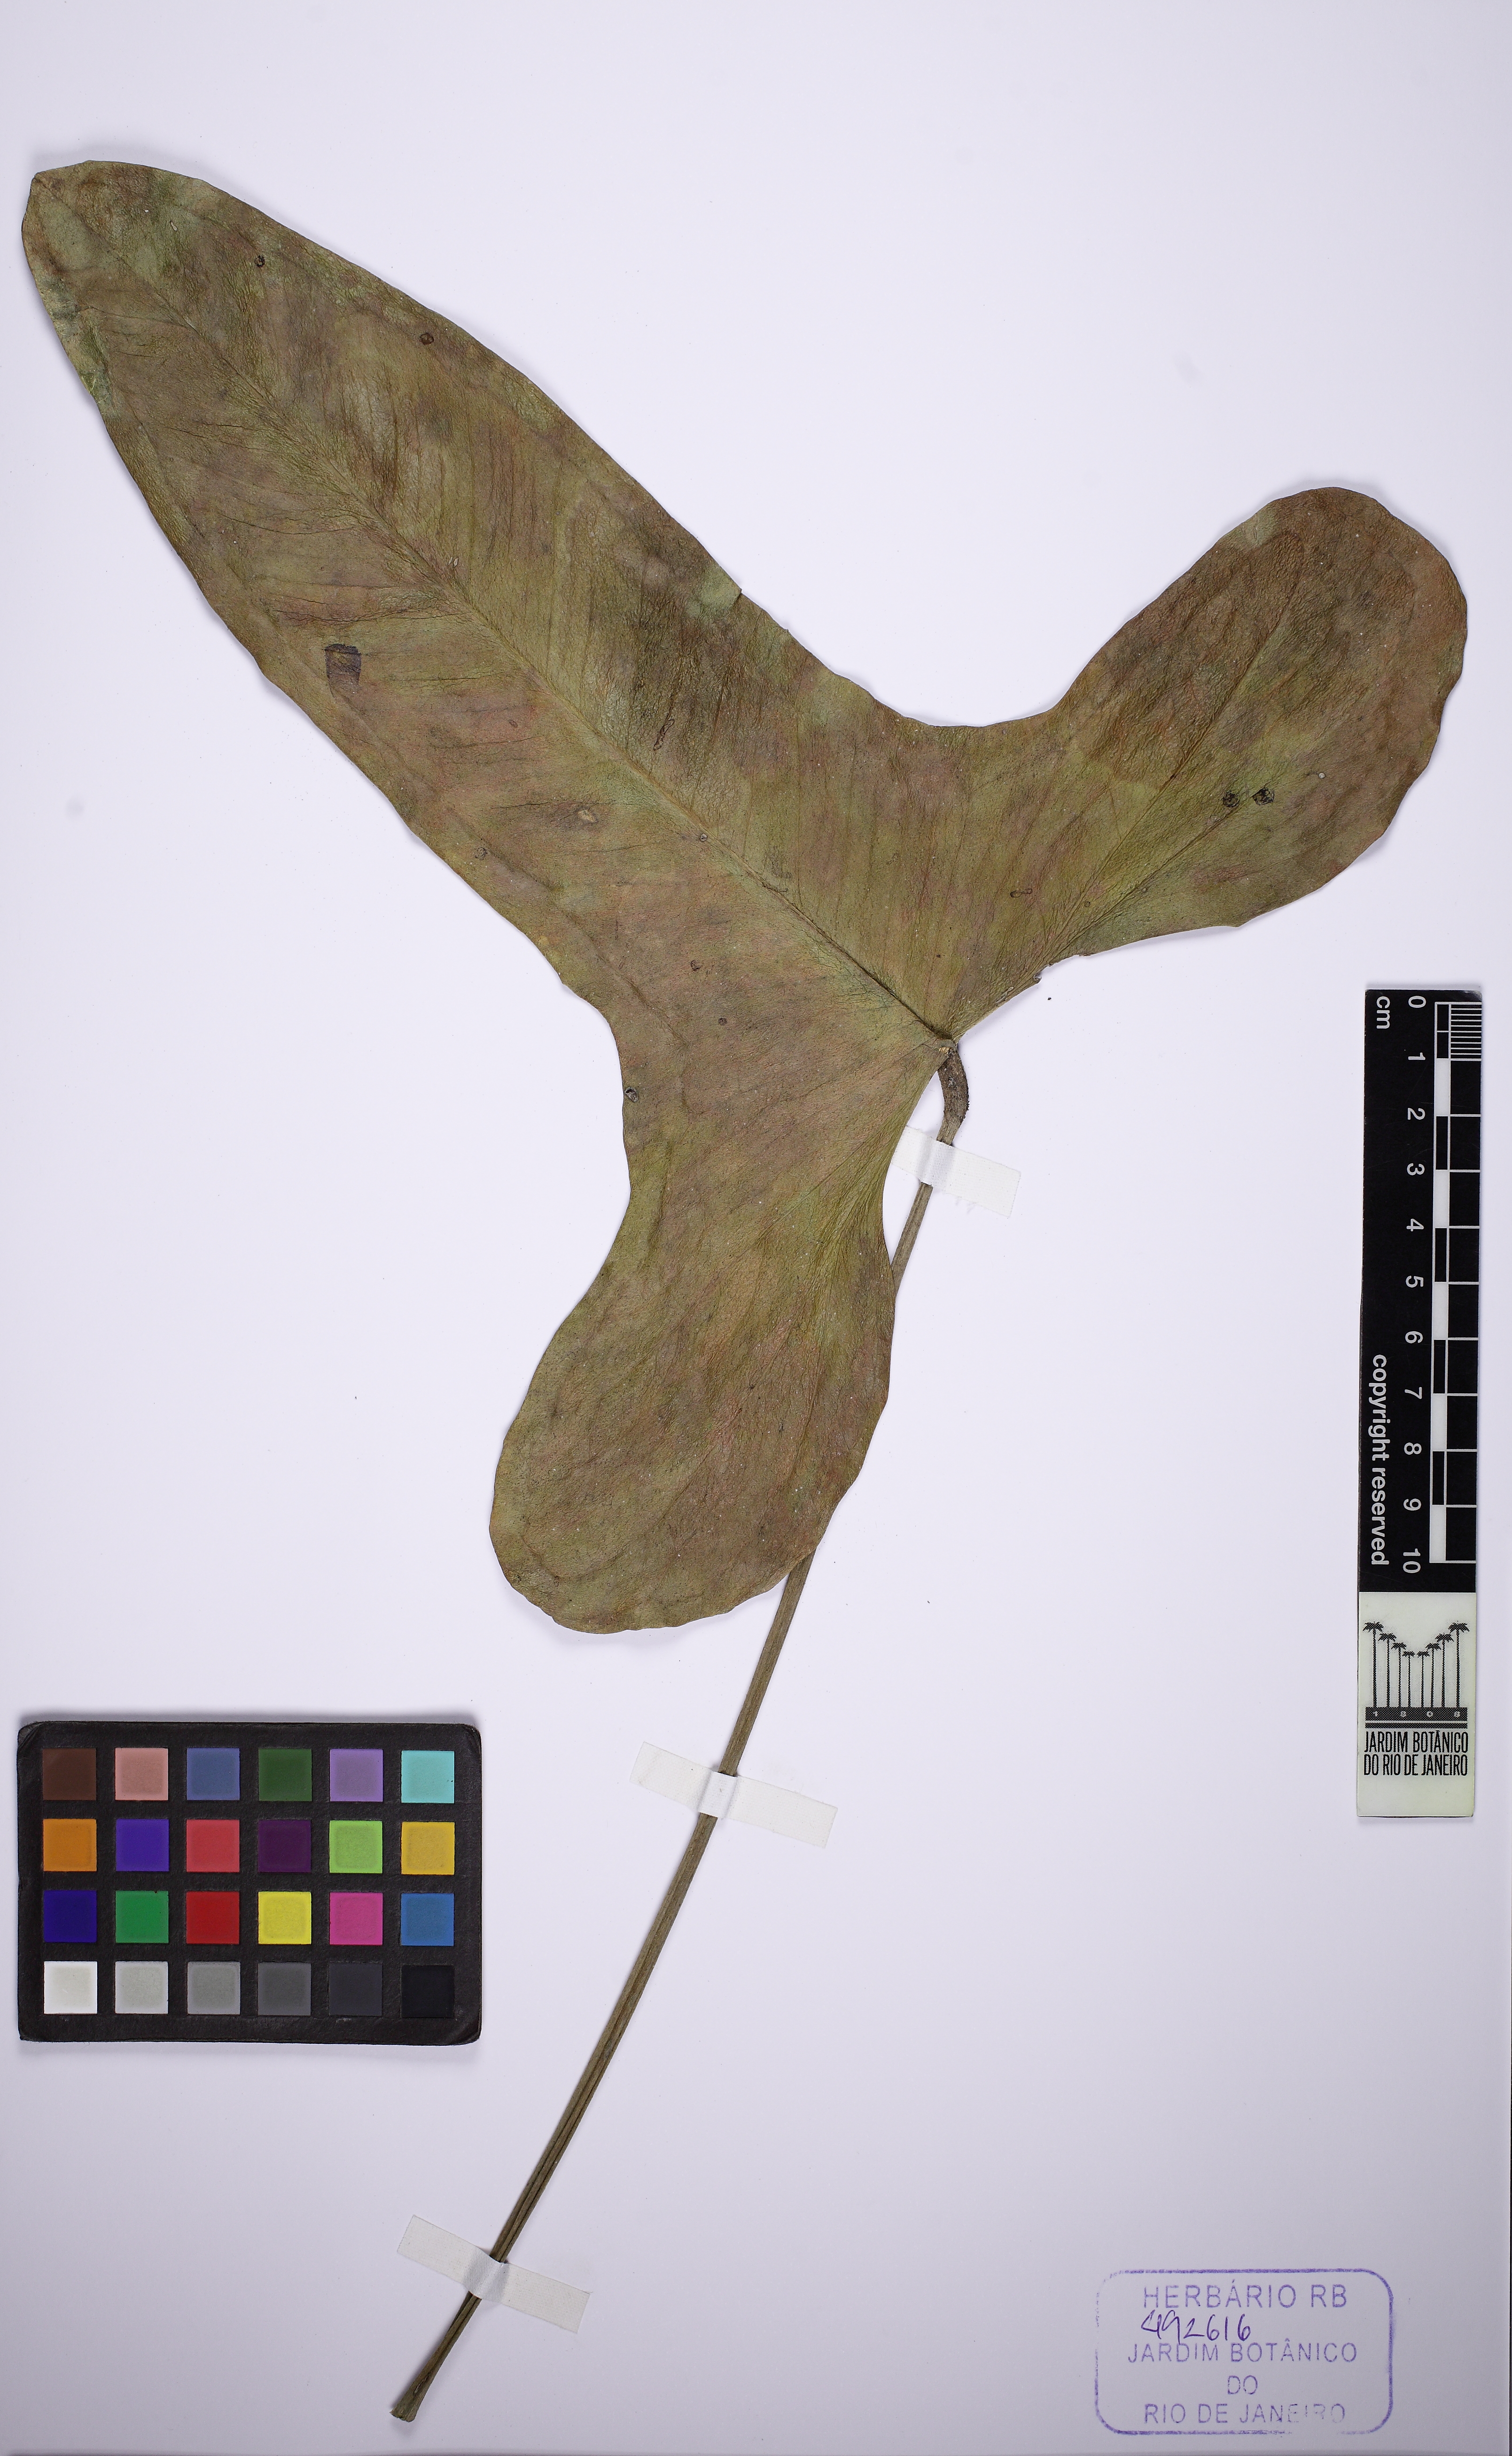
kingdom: Plantae
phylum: Tracheophyta
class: Liliopsida
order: Alismatales
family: Araceae
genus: Anthurium
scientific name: Anthurium zappiae
